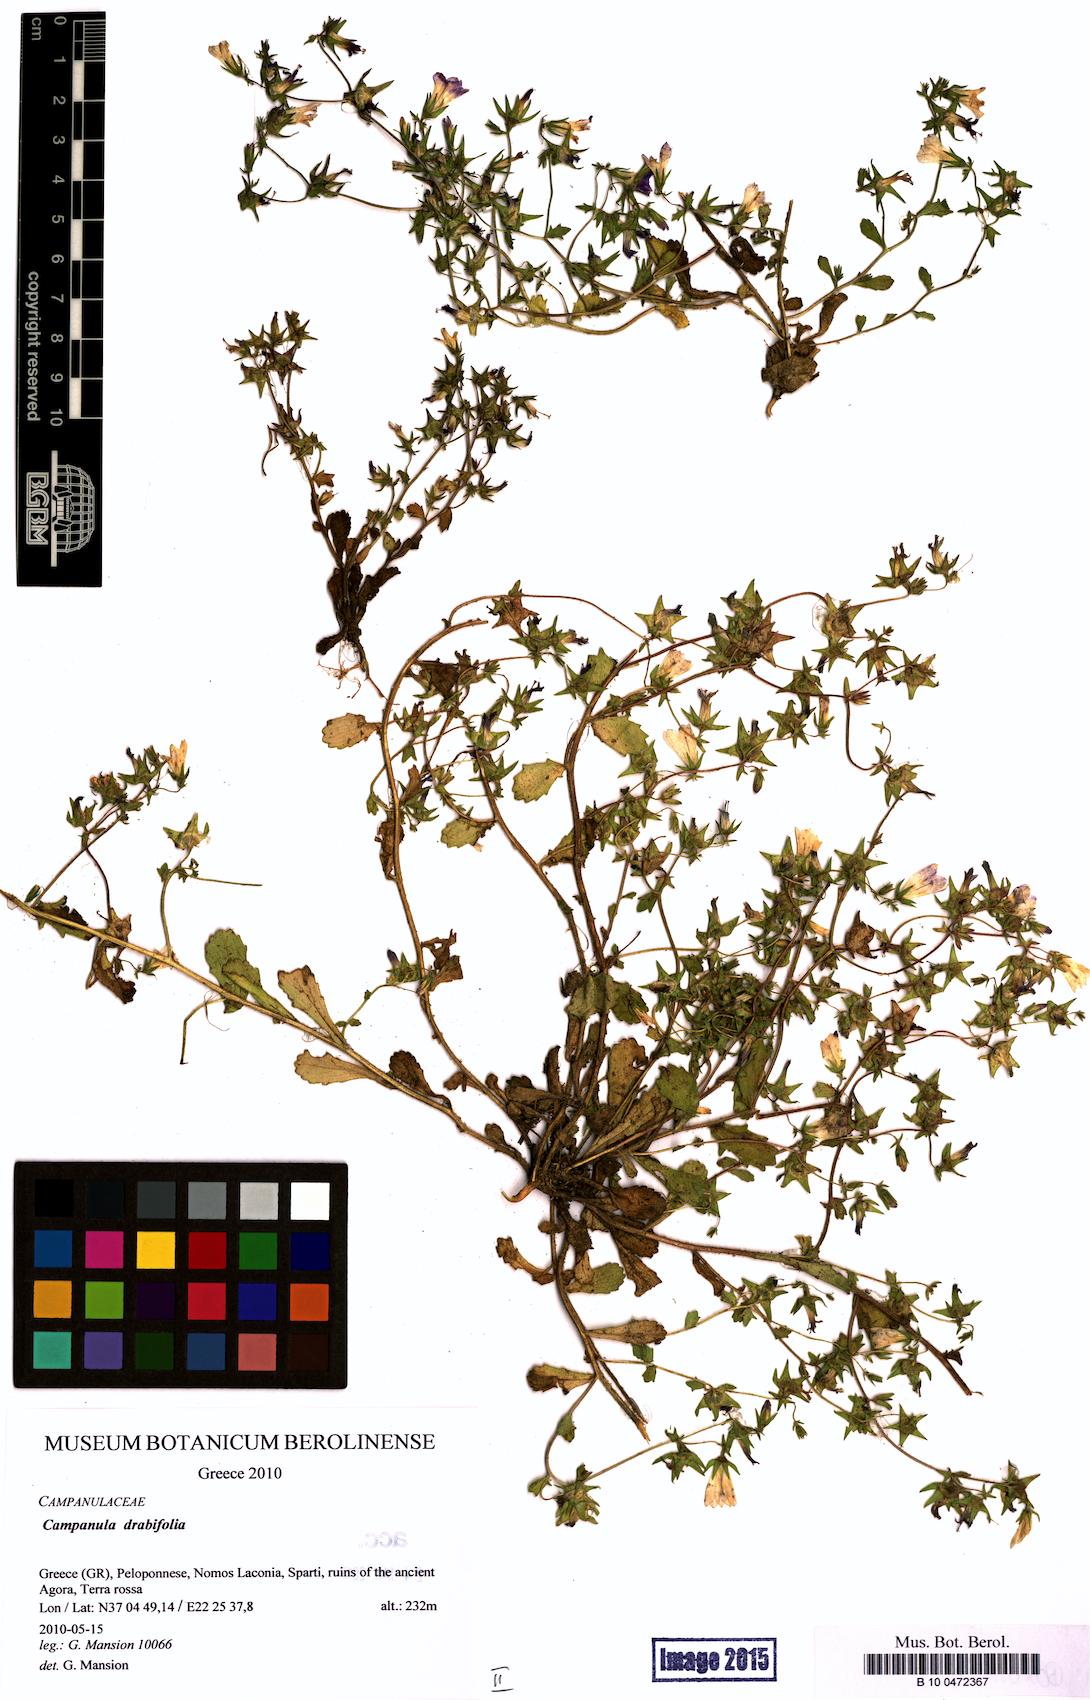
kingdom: Plantae
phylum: Tracheophyta
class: Magnoliopsida
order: Asterales
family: Campanulaceae
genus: Campanula
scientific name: Campanula drabifolia
